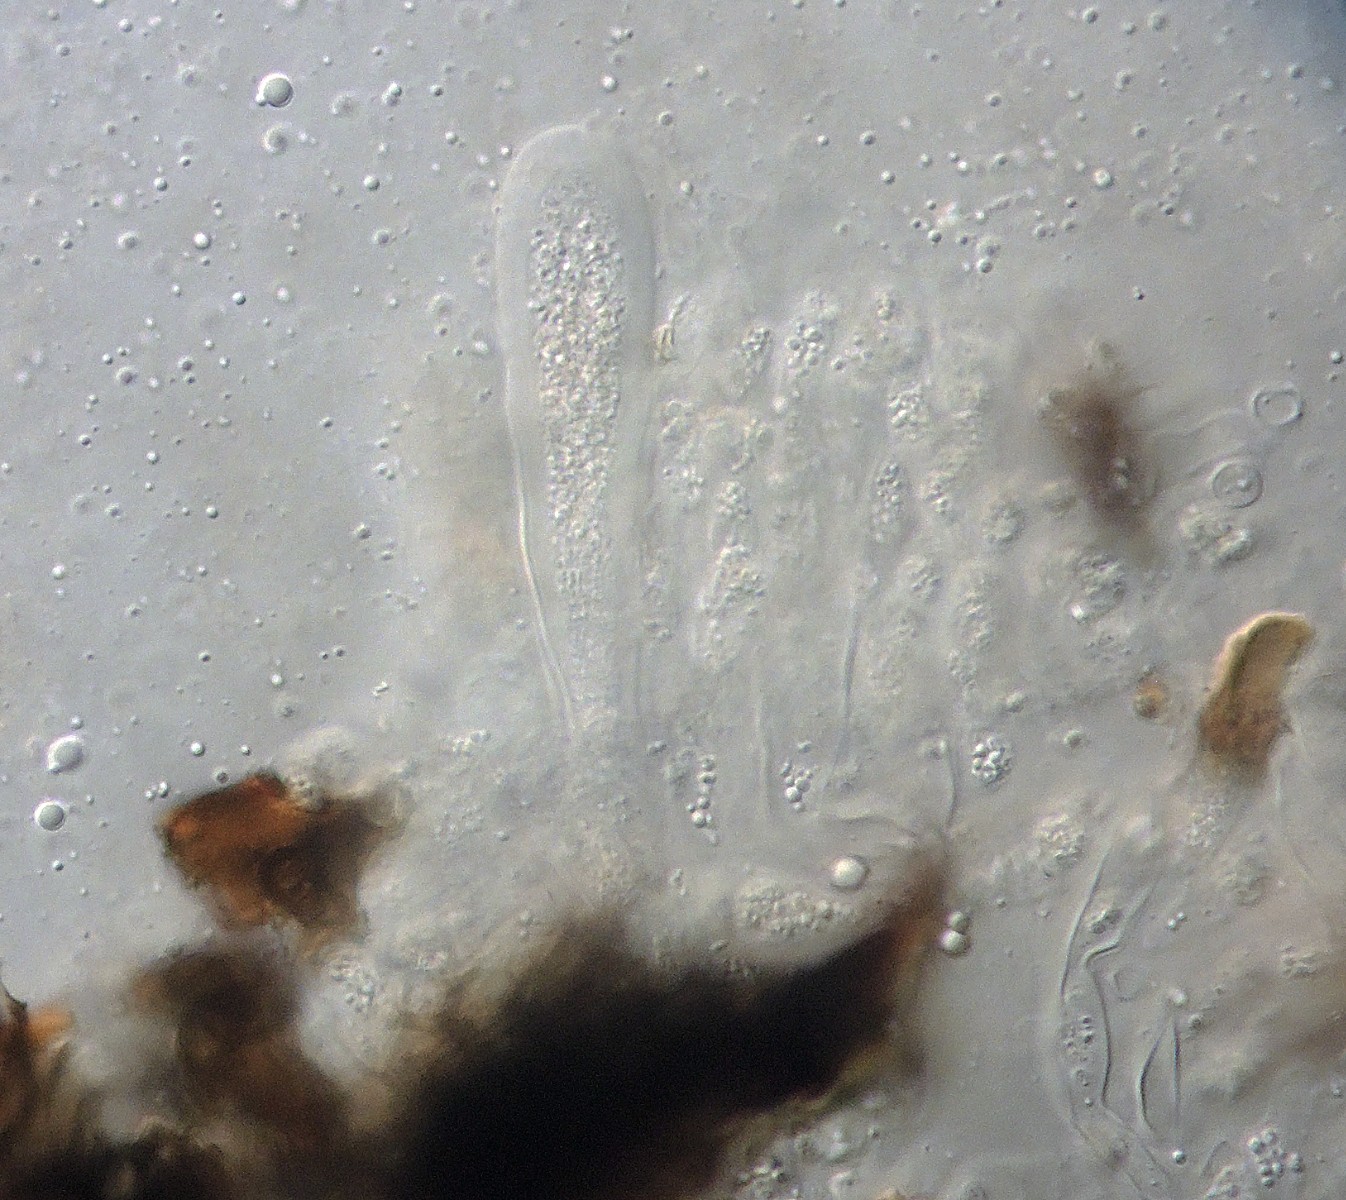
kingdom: Fungi
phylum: Ascomycota
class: Dothideomycetes
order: Botryosphaeriales
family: Phyllostictaceae
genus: Phyllosticta
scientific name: Phyllosticta foliorum
